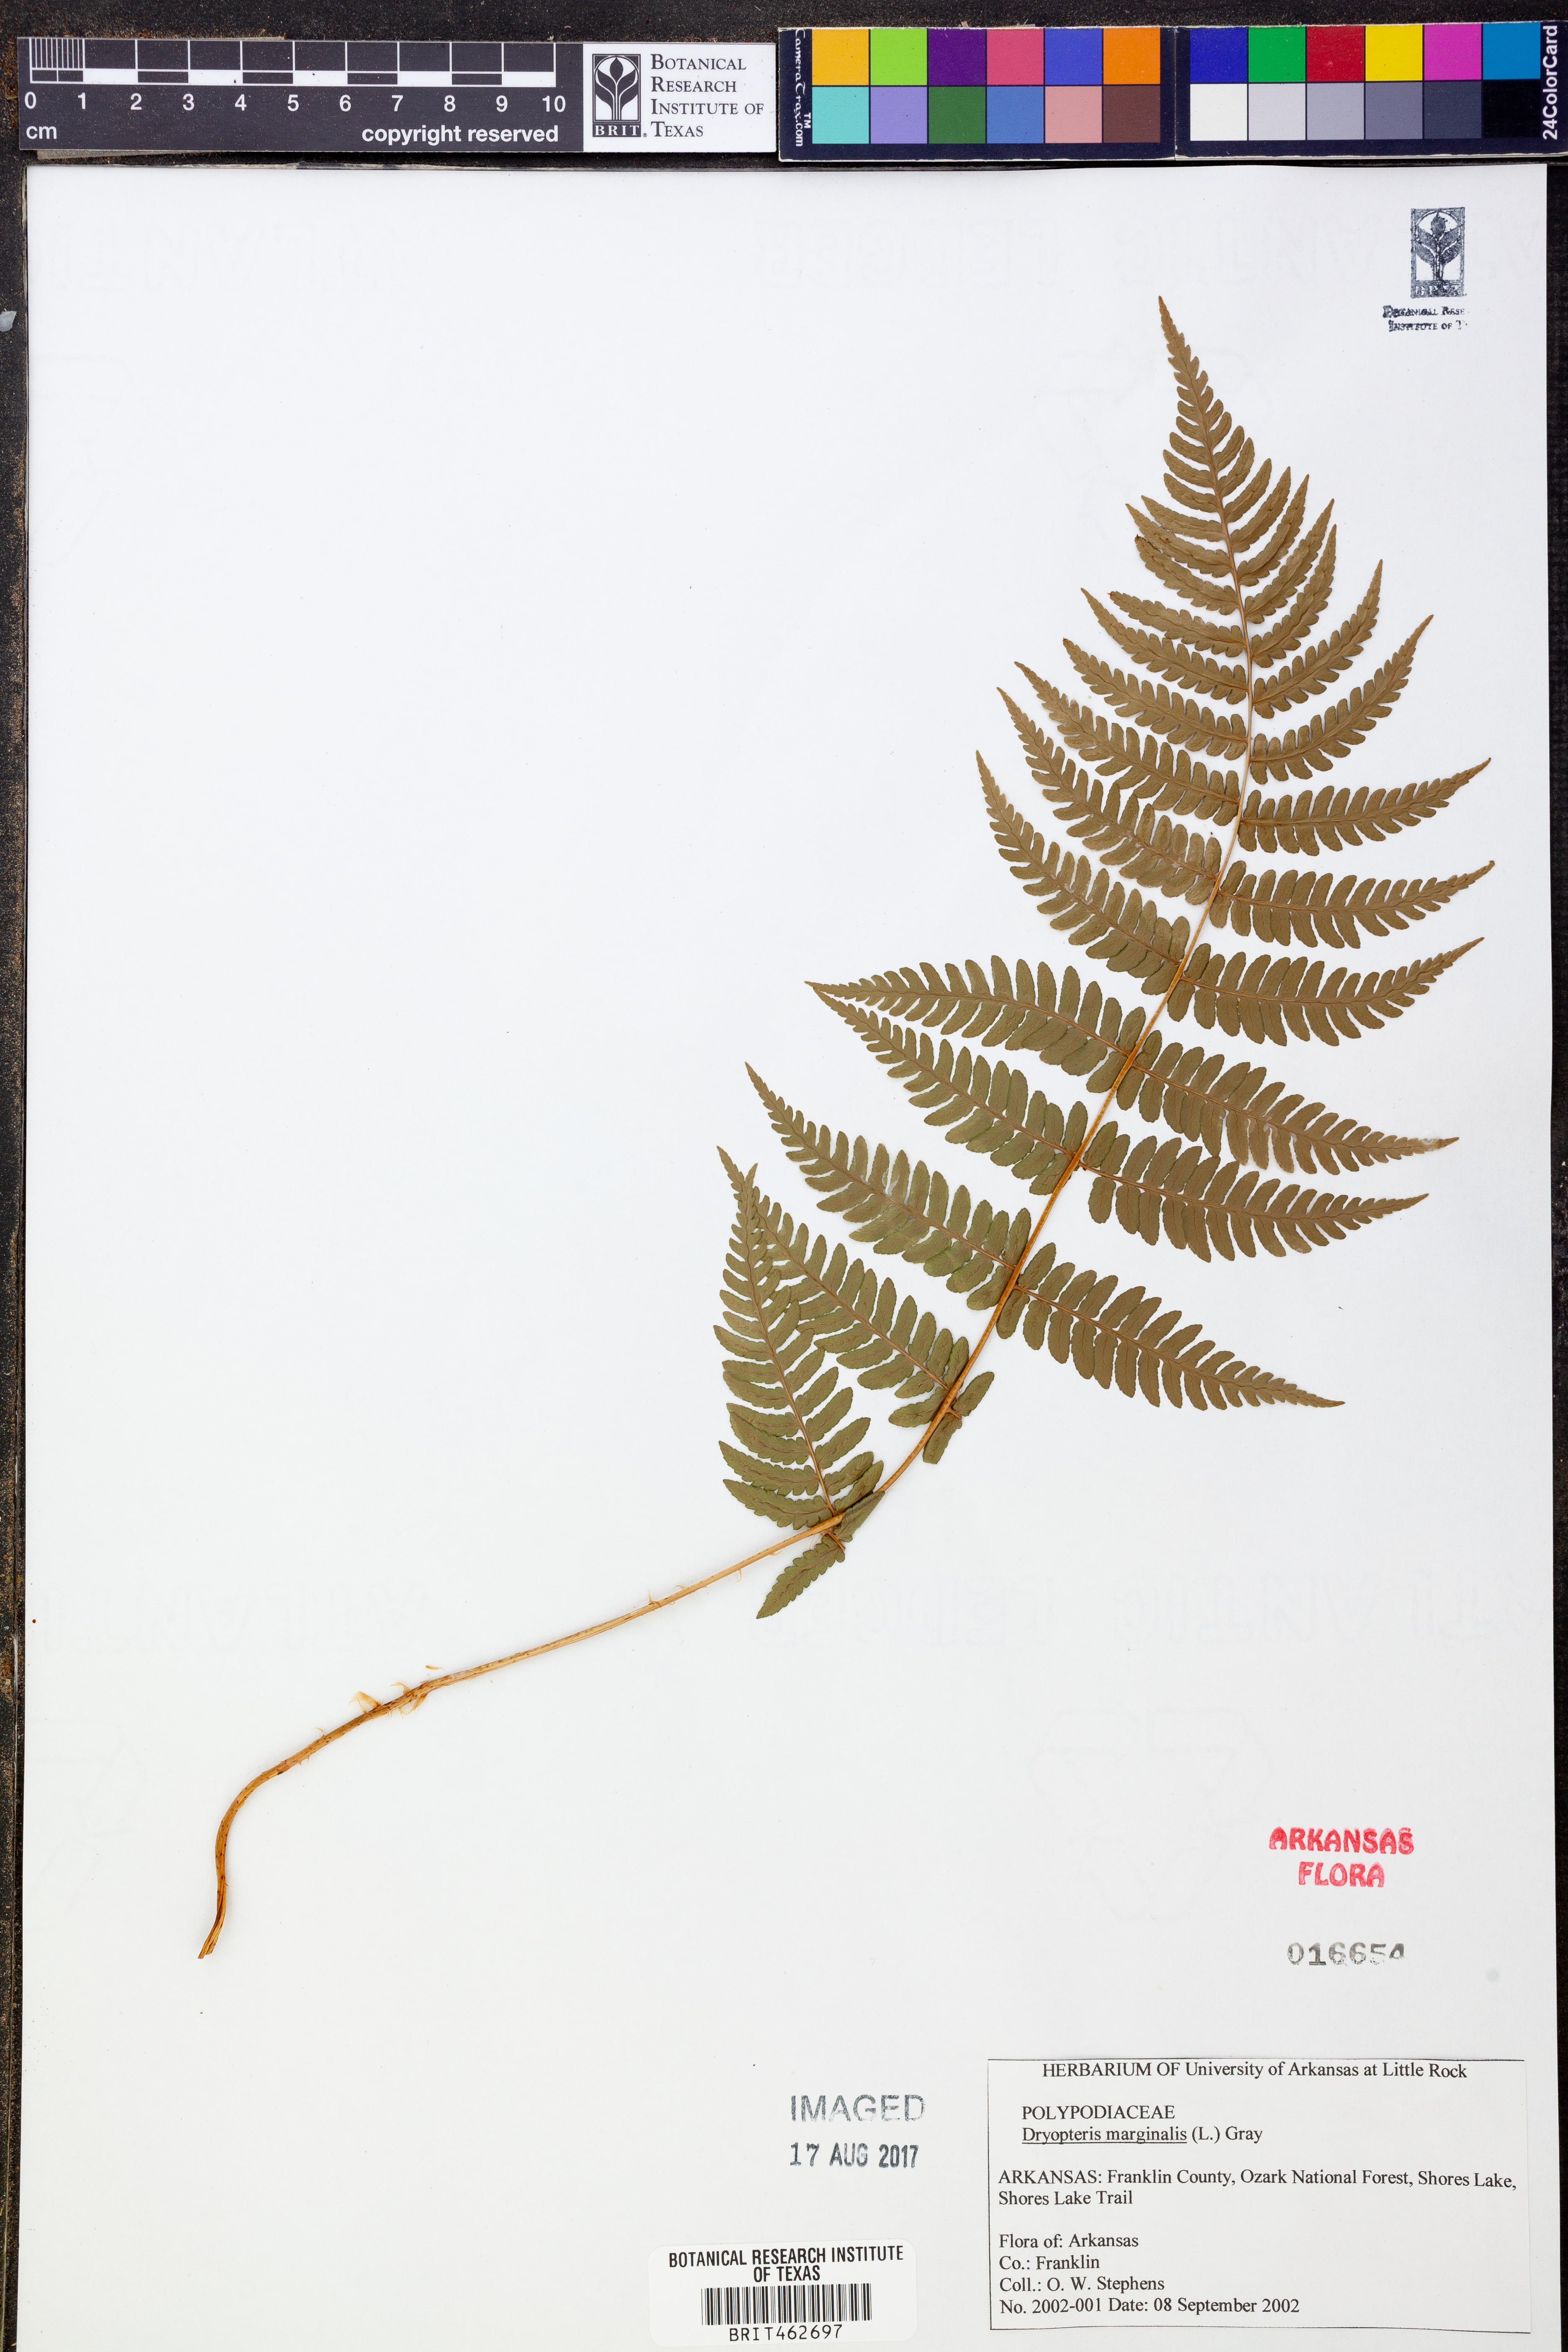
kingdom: Plantae
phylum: Tracheophyta
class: Polypodiopsida
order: Polypodiales
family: Dryopteridaceae
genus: Dryopteris
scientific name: Dryopteris marginalis
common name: Marginal wood fern
